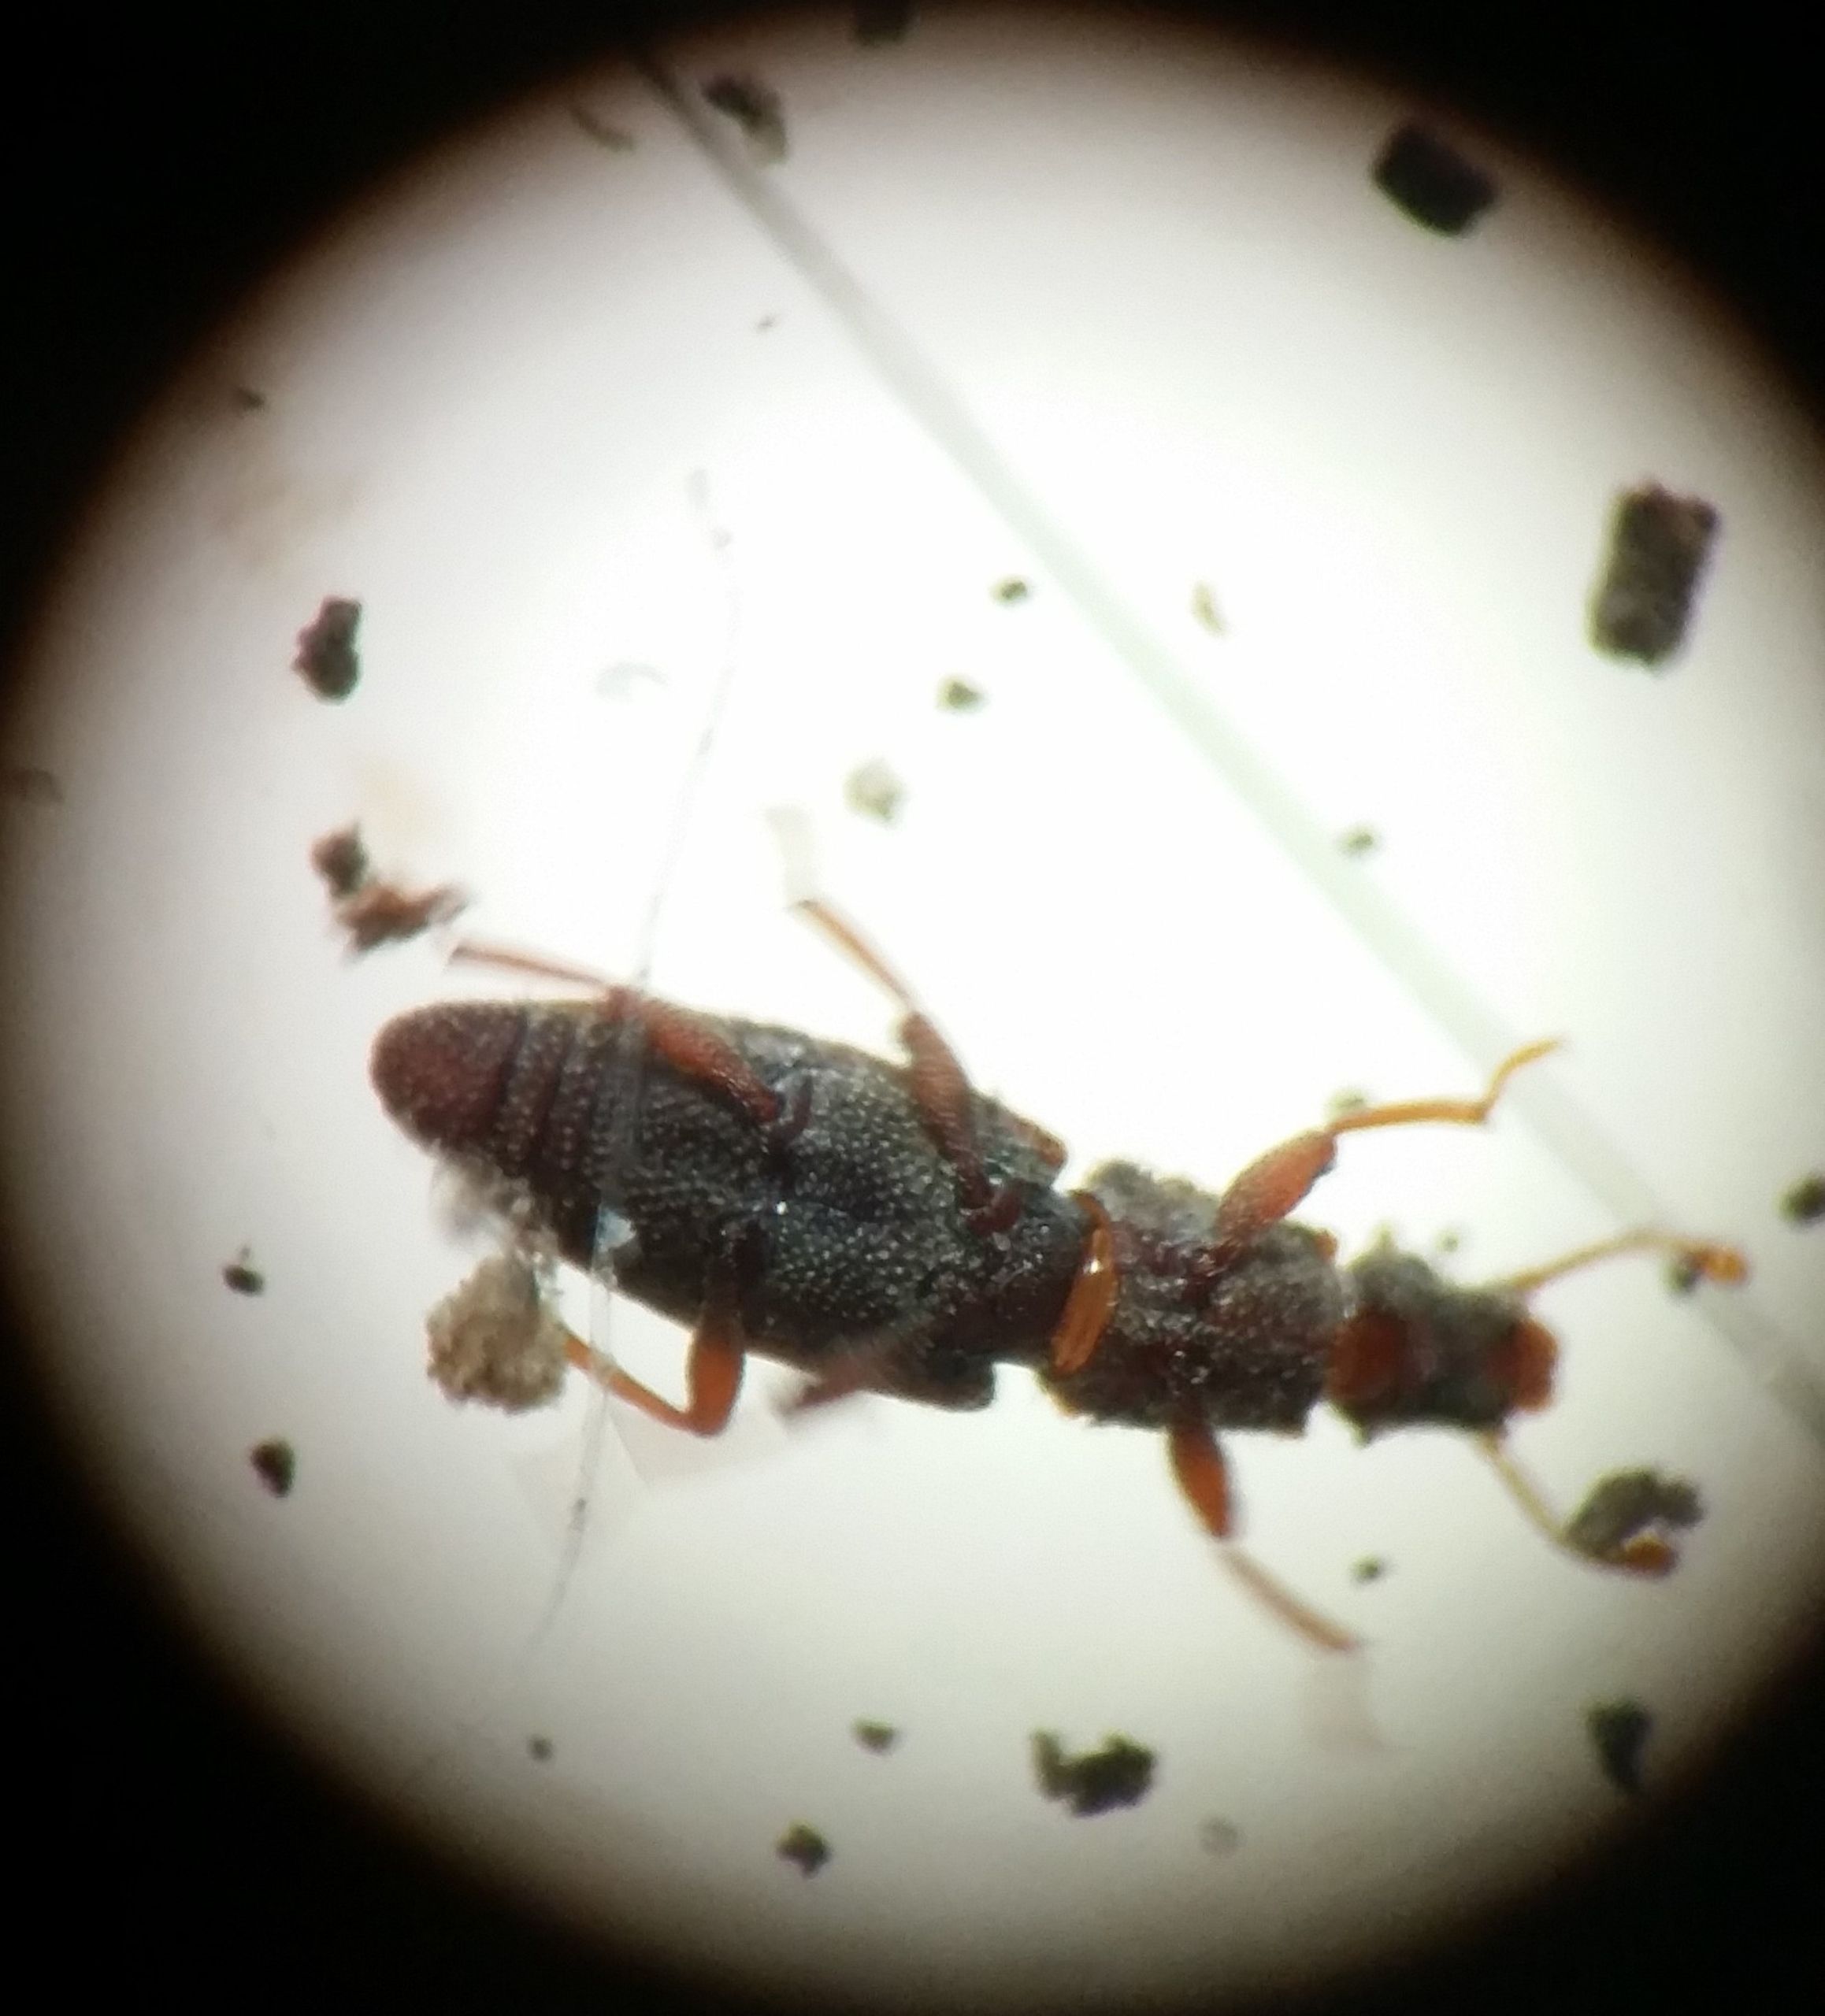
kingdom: Animalia
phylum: Arthropoda
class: Insecta
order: Coleoptera
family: Monotomidae
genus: Monotoma
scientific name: Monotoma conicicollis
